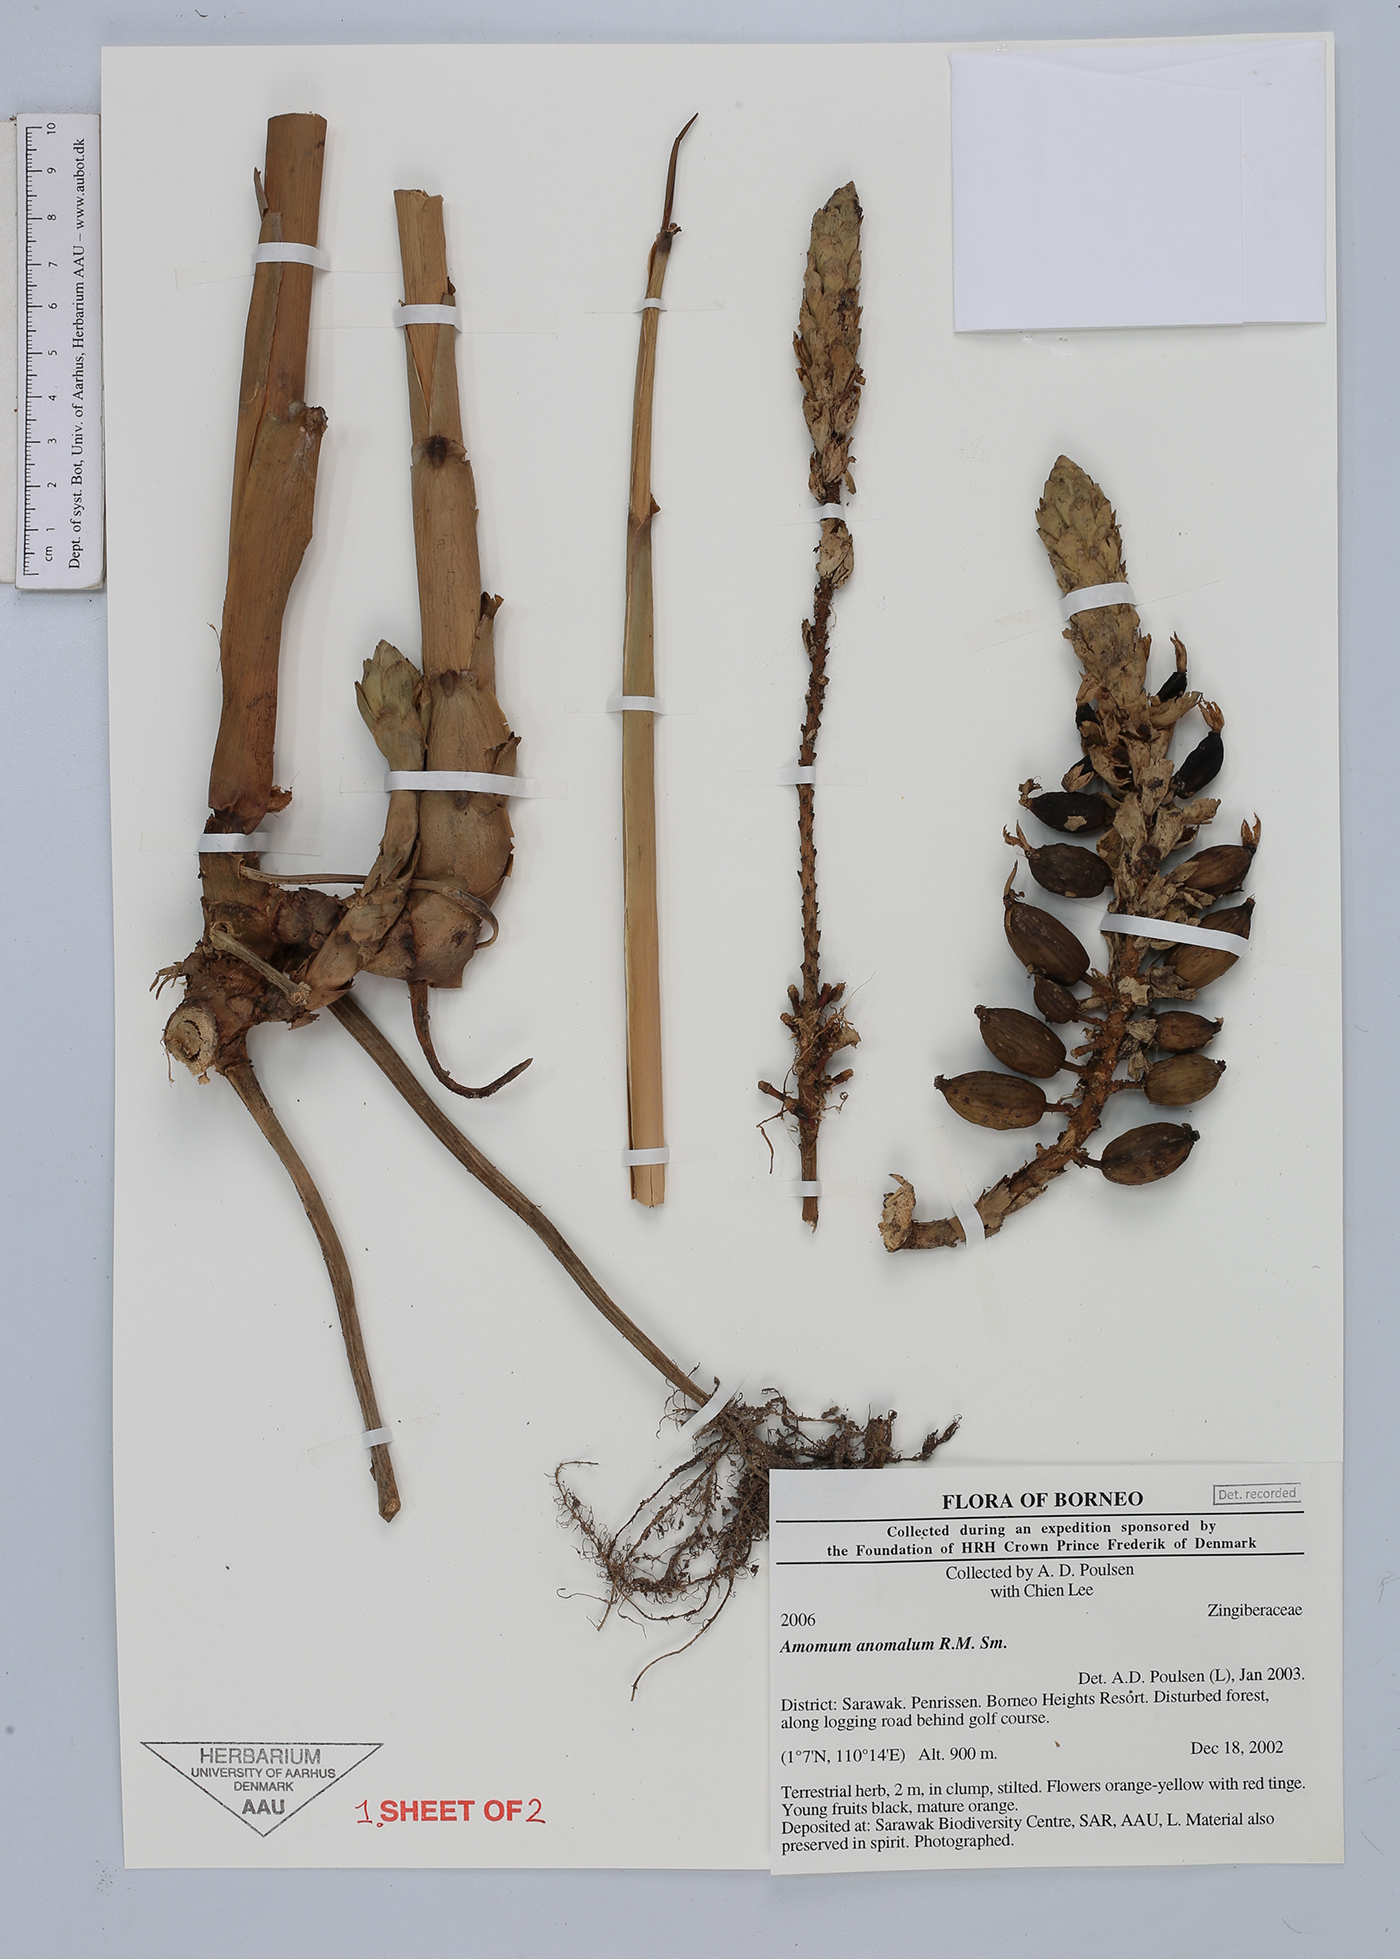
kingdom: Plantae
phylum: Tracheophyta
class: Liliopsida
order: Zingiberales
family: Zingiberaceae
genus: Sulettaria
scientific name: Sulettaria anomala
